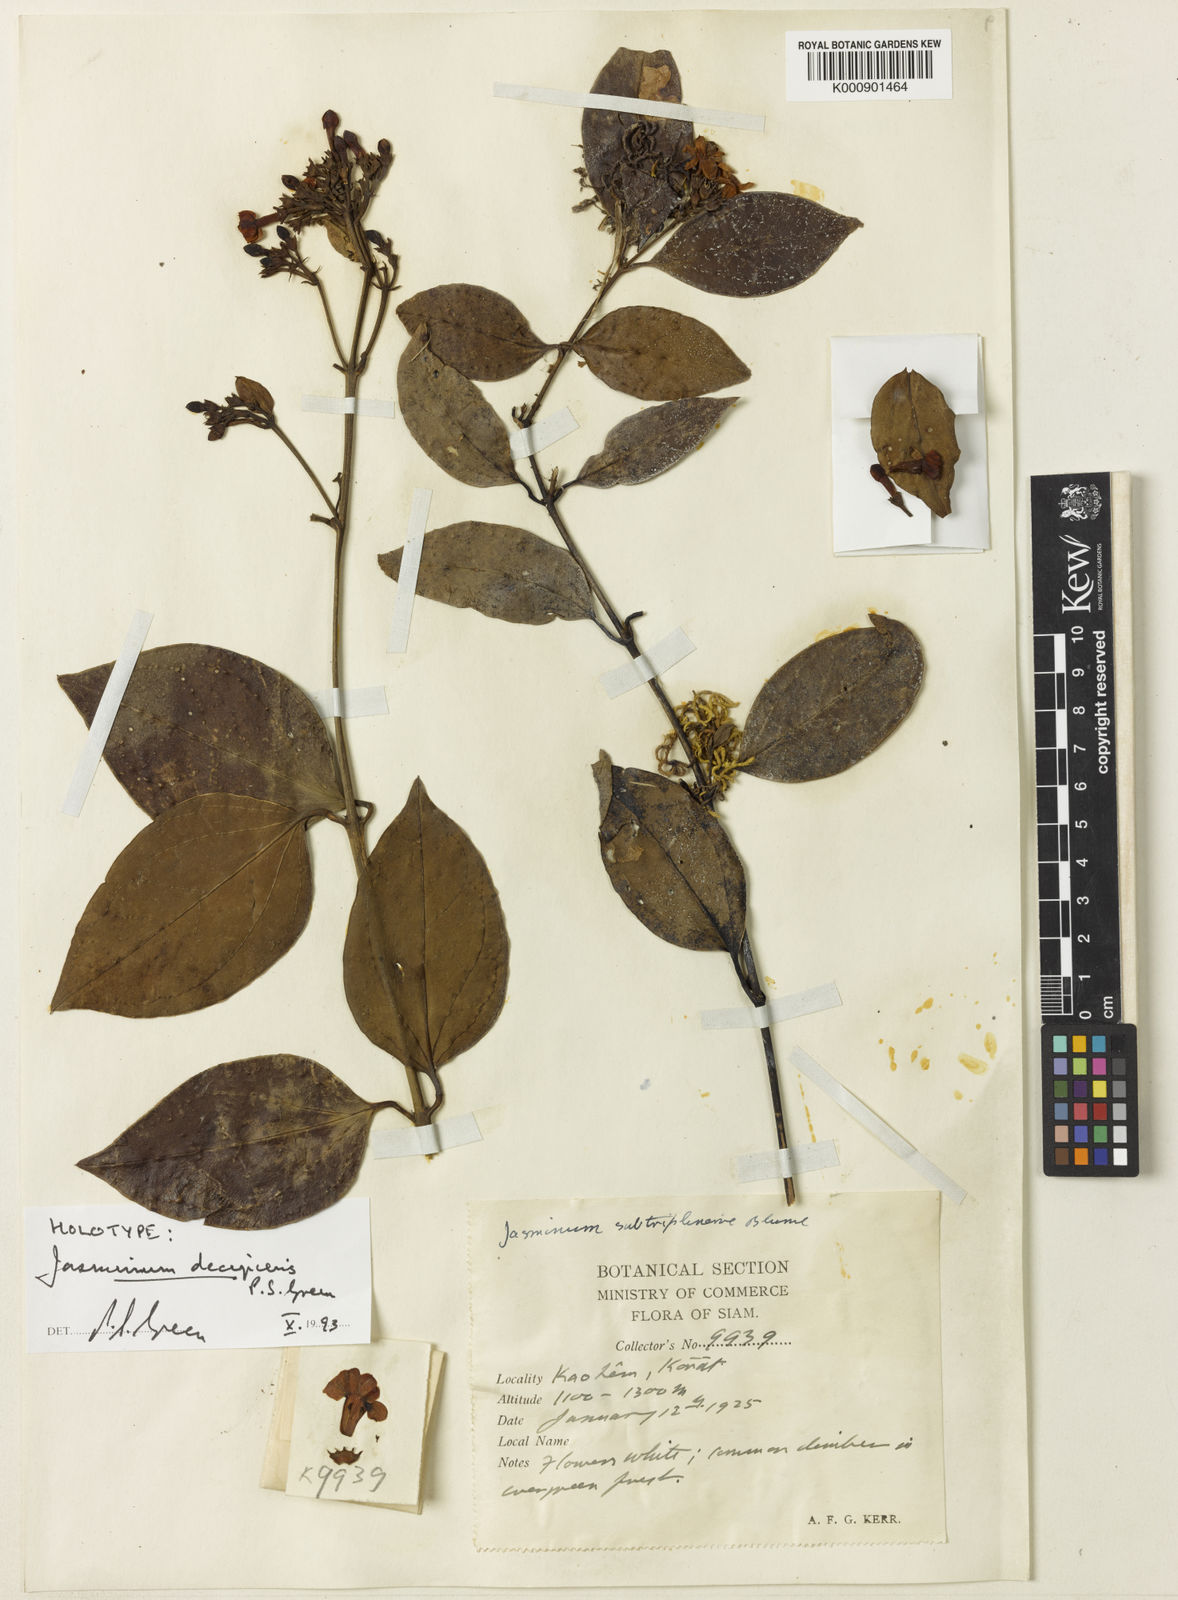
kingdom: Plantae
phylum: Tracheophyta
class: Magnoliopsida
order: Lamiales
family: Oleaceae
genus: Jasminum
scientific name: Jasminum decipiens
